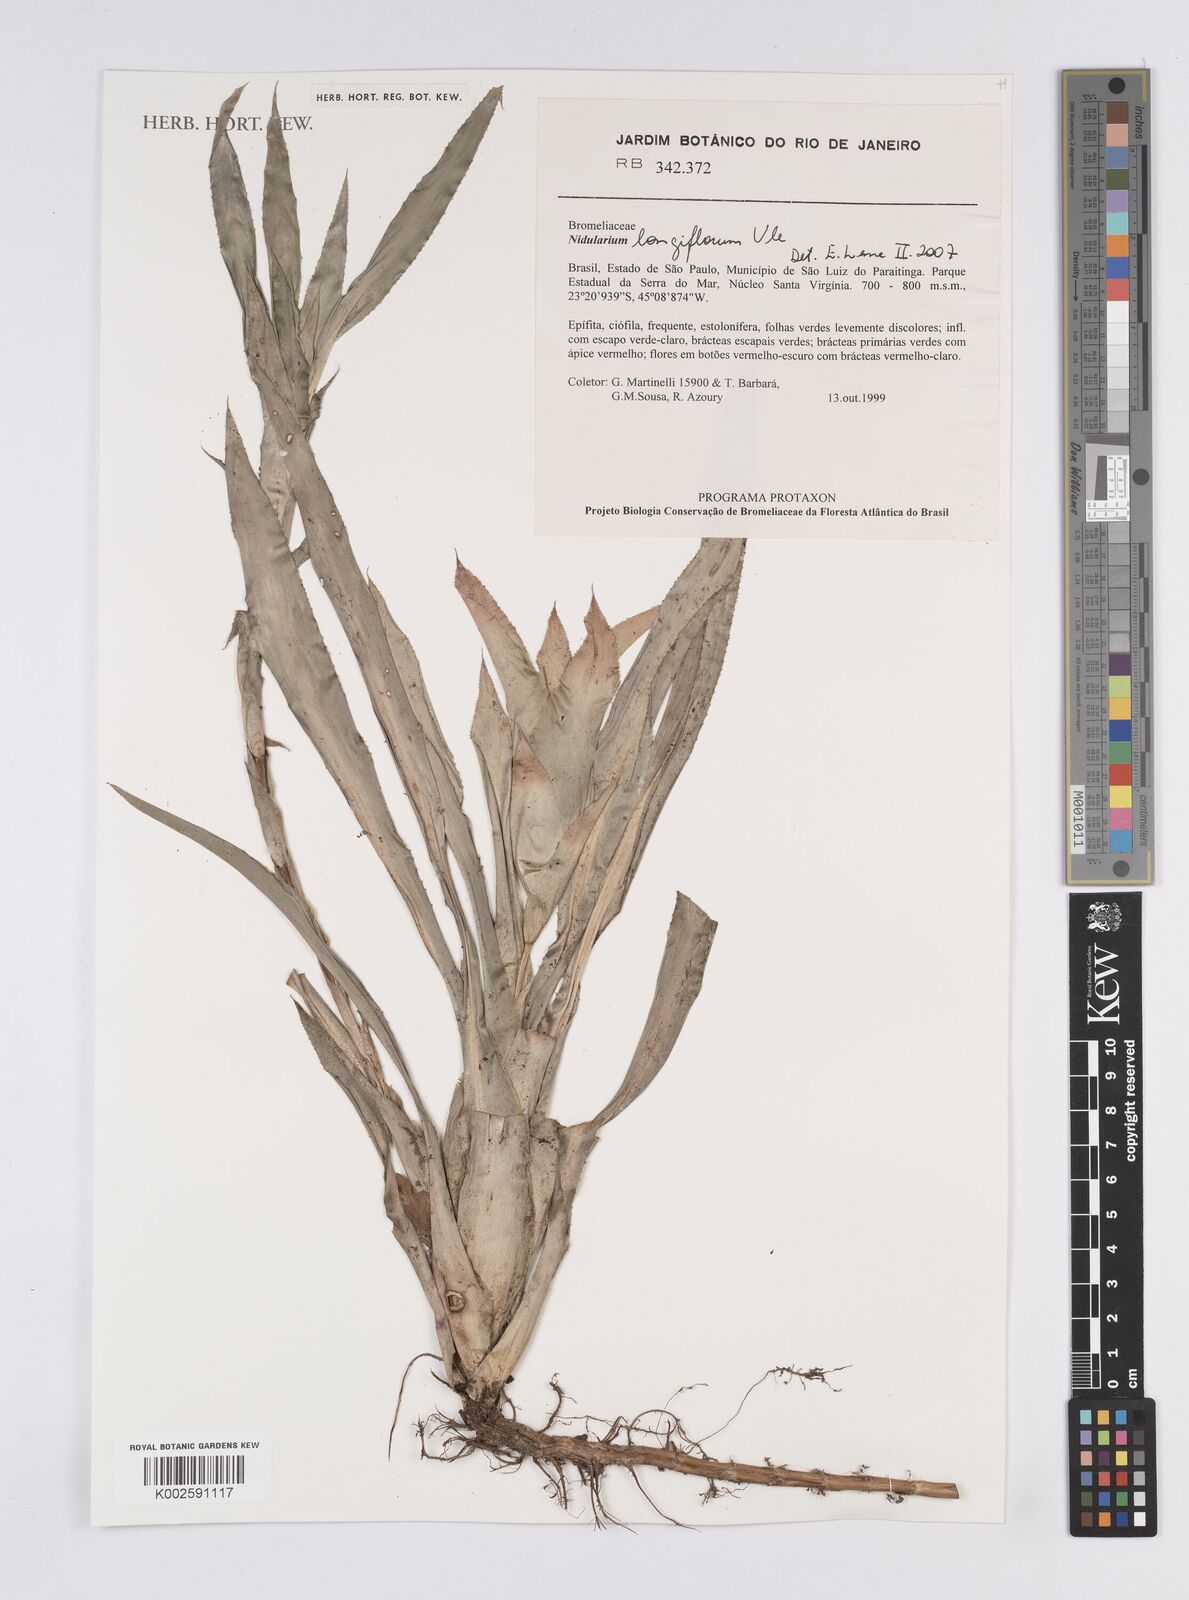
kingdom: Plantae
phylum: Tracheophyta
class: Liliopsida
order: Poales
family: Bromeliaceae
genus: Nidularium
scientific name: Nidularium longiflorum
